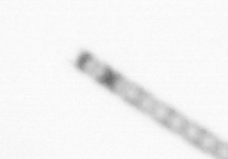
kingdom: Chromista
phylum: Ochrophyta
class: Bacillariophyceae
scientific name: Bacillariophyceae
